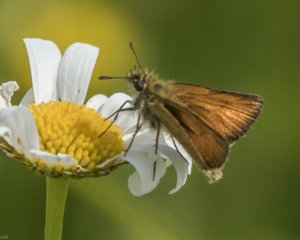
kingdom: Animalia
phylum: Arthropoda
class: Insecta
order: Lepidoptera
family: Hesperiidae
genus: Thymelicus
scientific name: Thymelicus lineola
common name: European Skipper
